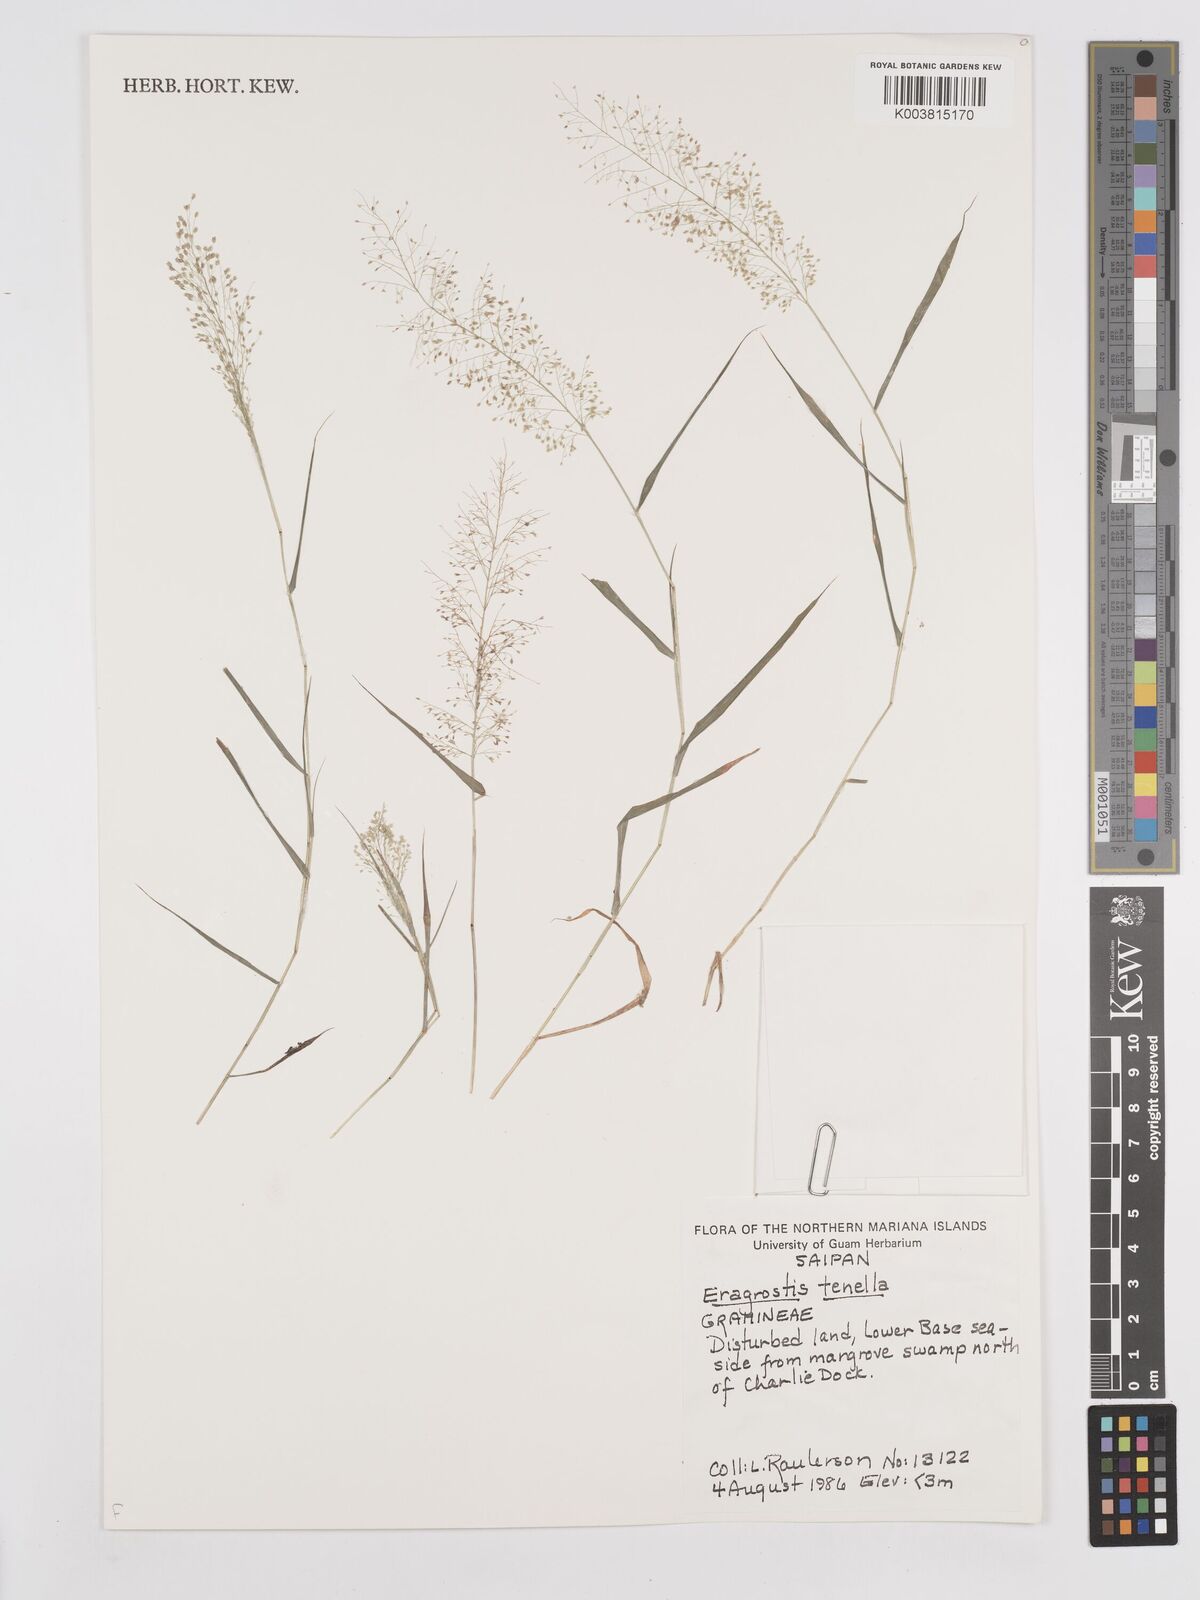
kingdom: Plantae
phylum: Tracheophyta
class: Liliopsida
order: Poales
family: Poaceae
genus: Eragrostis
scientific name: Eragrostis tenella
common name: Japanese lovegrass
